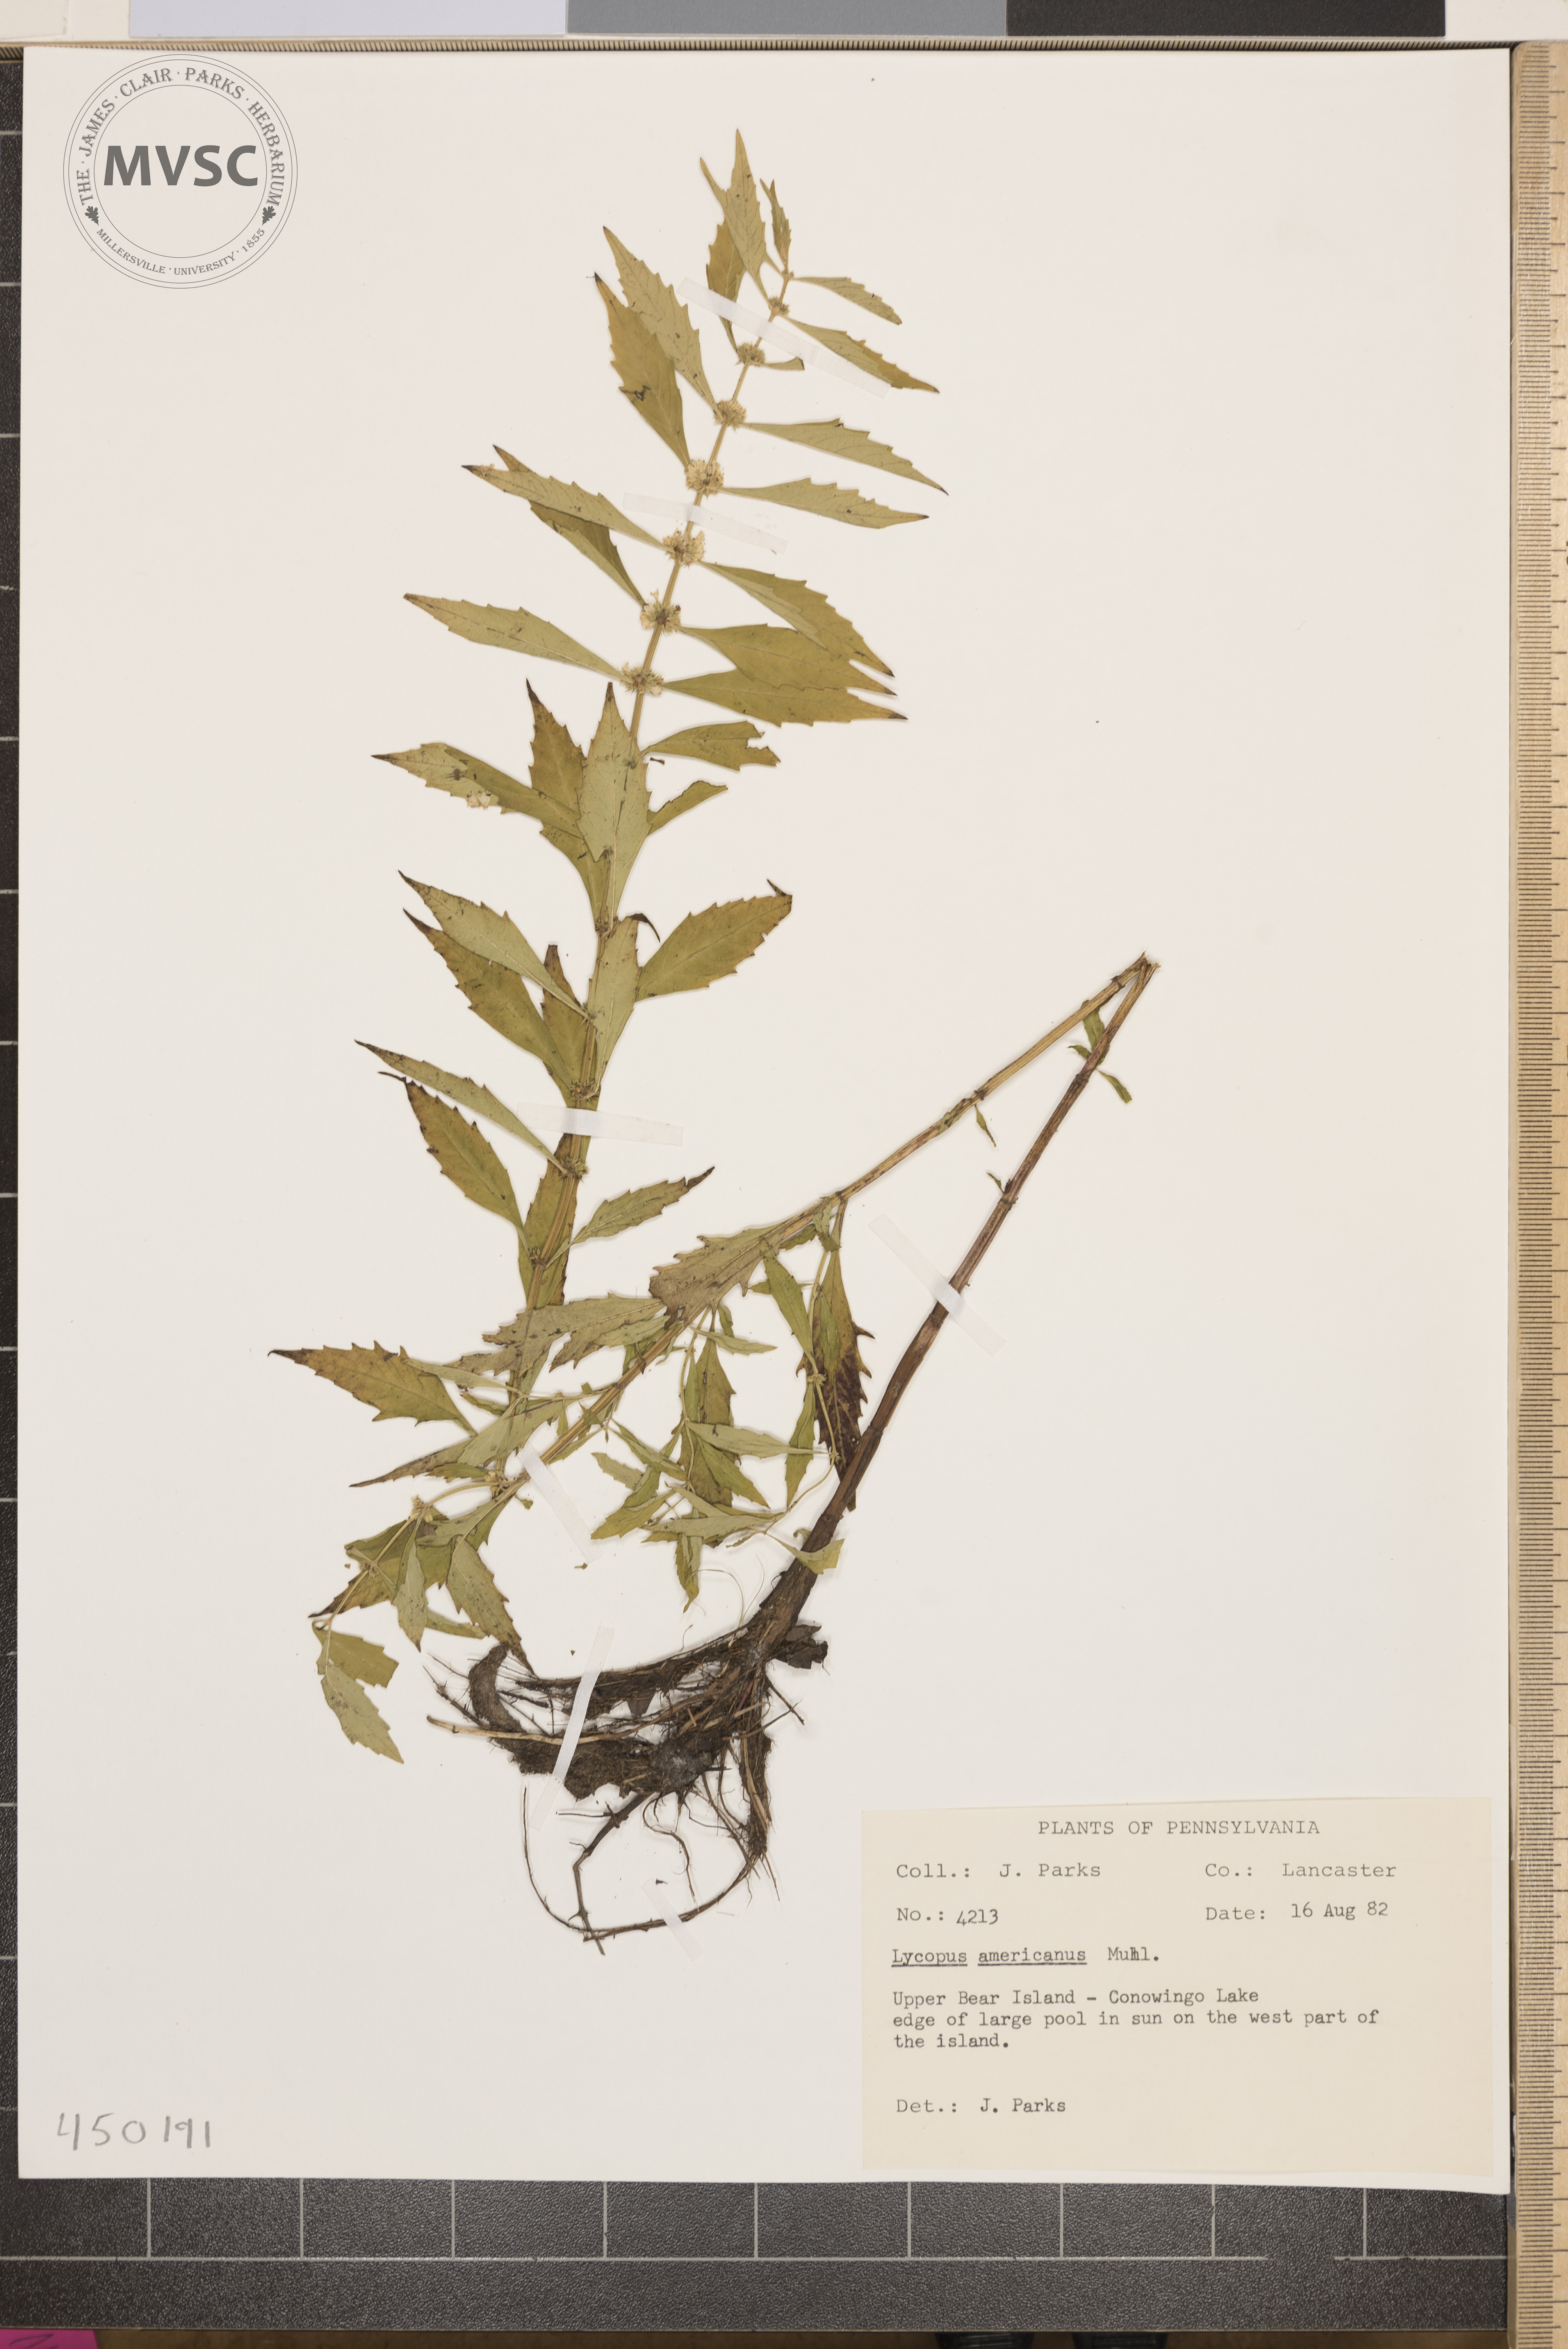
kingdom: Plantae
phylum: Tracheophyta
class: Magnoliopsida
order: Lamiales
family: Lamiaceae
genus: Lycopus
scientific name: Lycopus americanus
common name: American bugleweed
